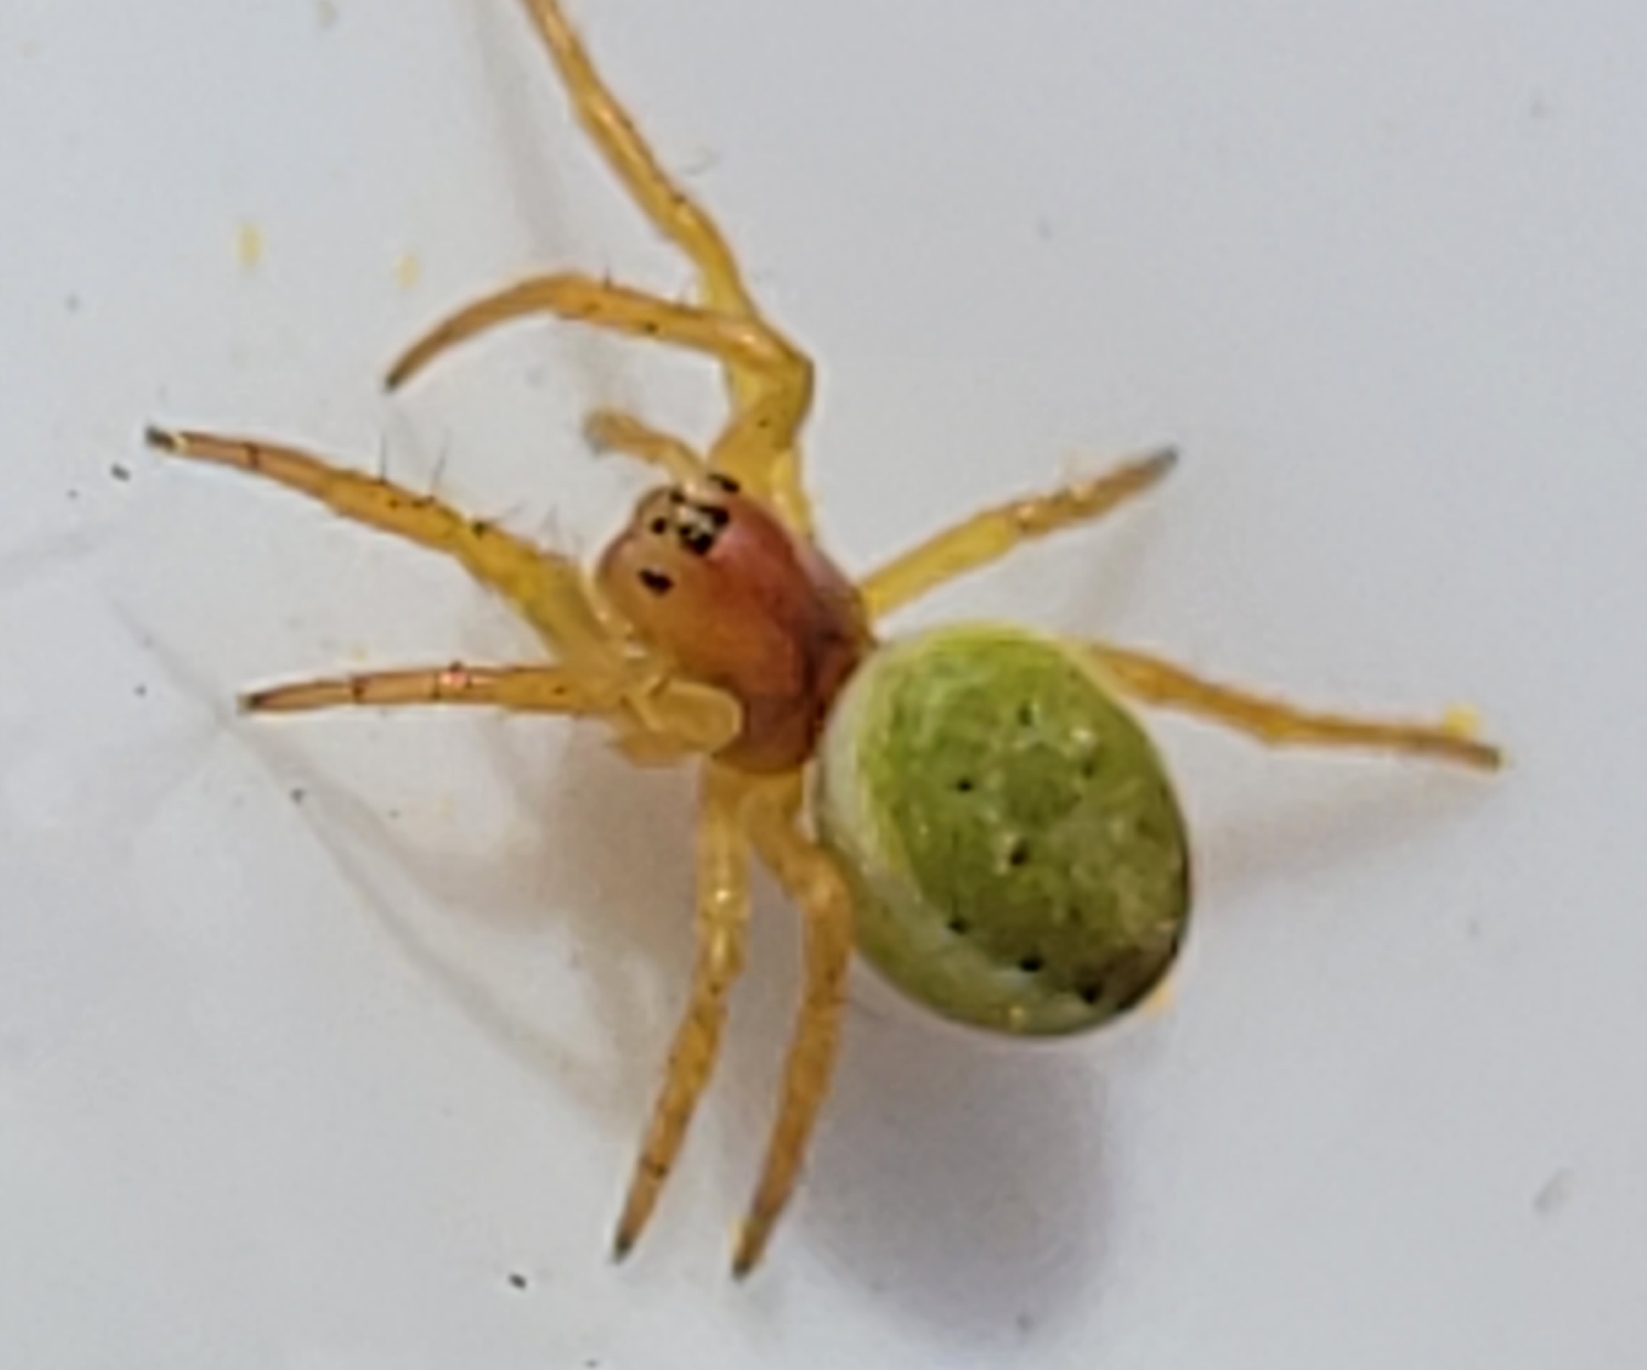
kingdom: Animalia
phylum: Arthropoda
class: Arachnida
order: Araneae
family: Araneidae
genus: Araniella
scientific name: Araniella
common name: Agurkeedderkopslægten
